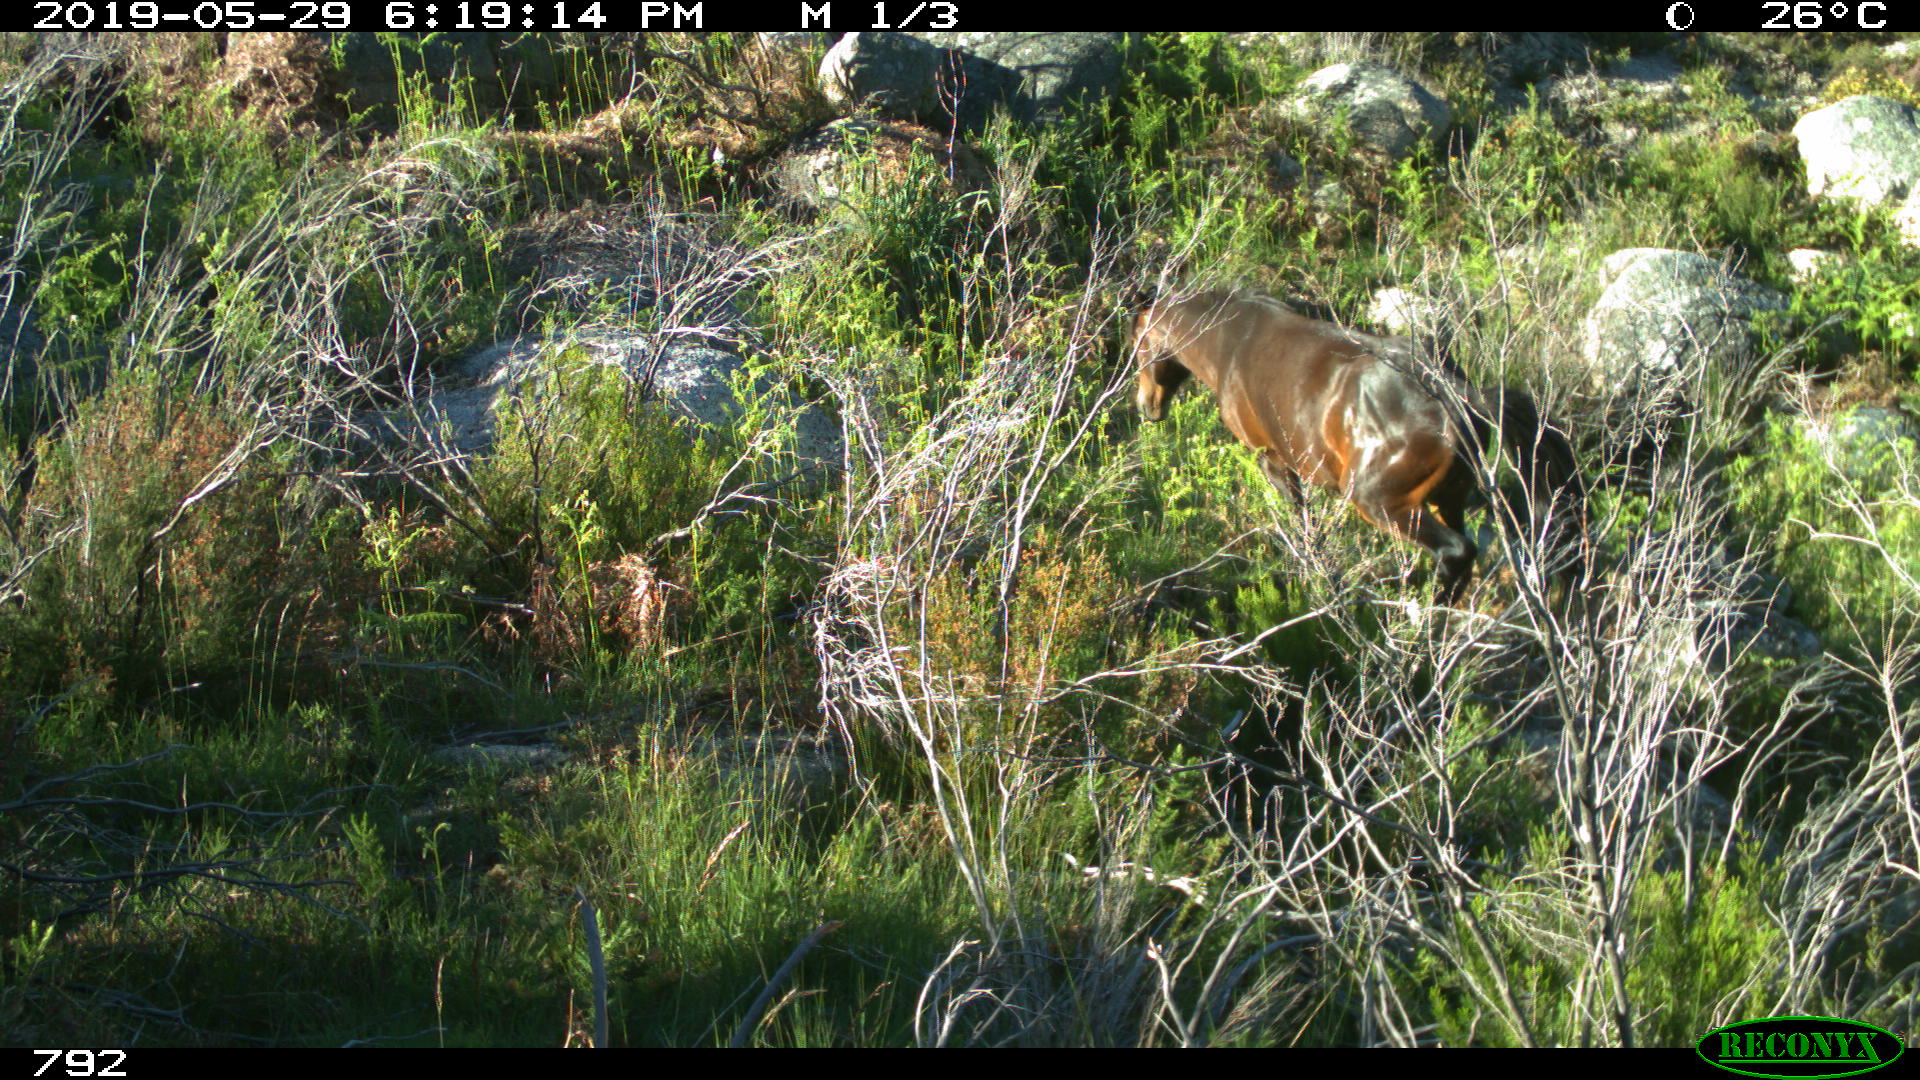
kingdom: Animalia
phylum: Chordata
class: Mammalia
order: Perissodactyla
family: Equidae
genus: Equus
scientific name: Equus caballus
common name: Horse
